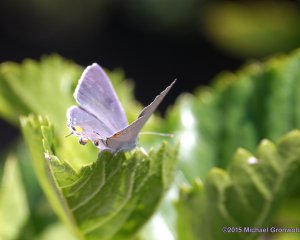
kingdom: Animalia
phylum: Arthropoda
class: Insecta
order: Lepidoptera
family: Lycaenidae
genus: Strymon
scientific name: Strymon melinus
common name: Gray Hairstreak
